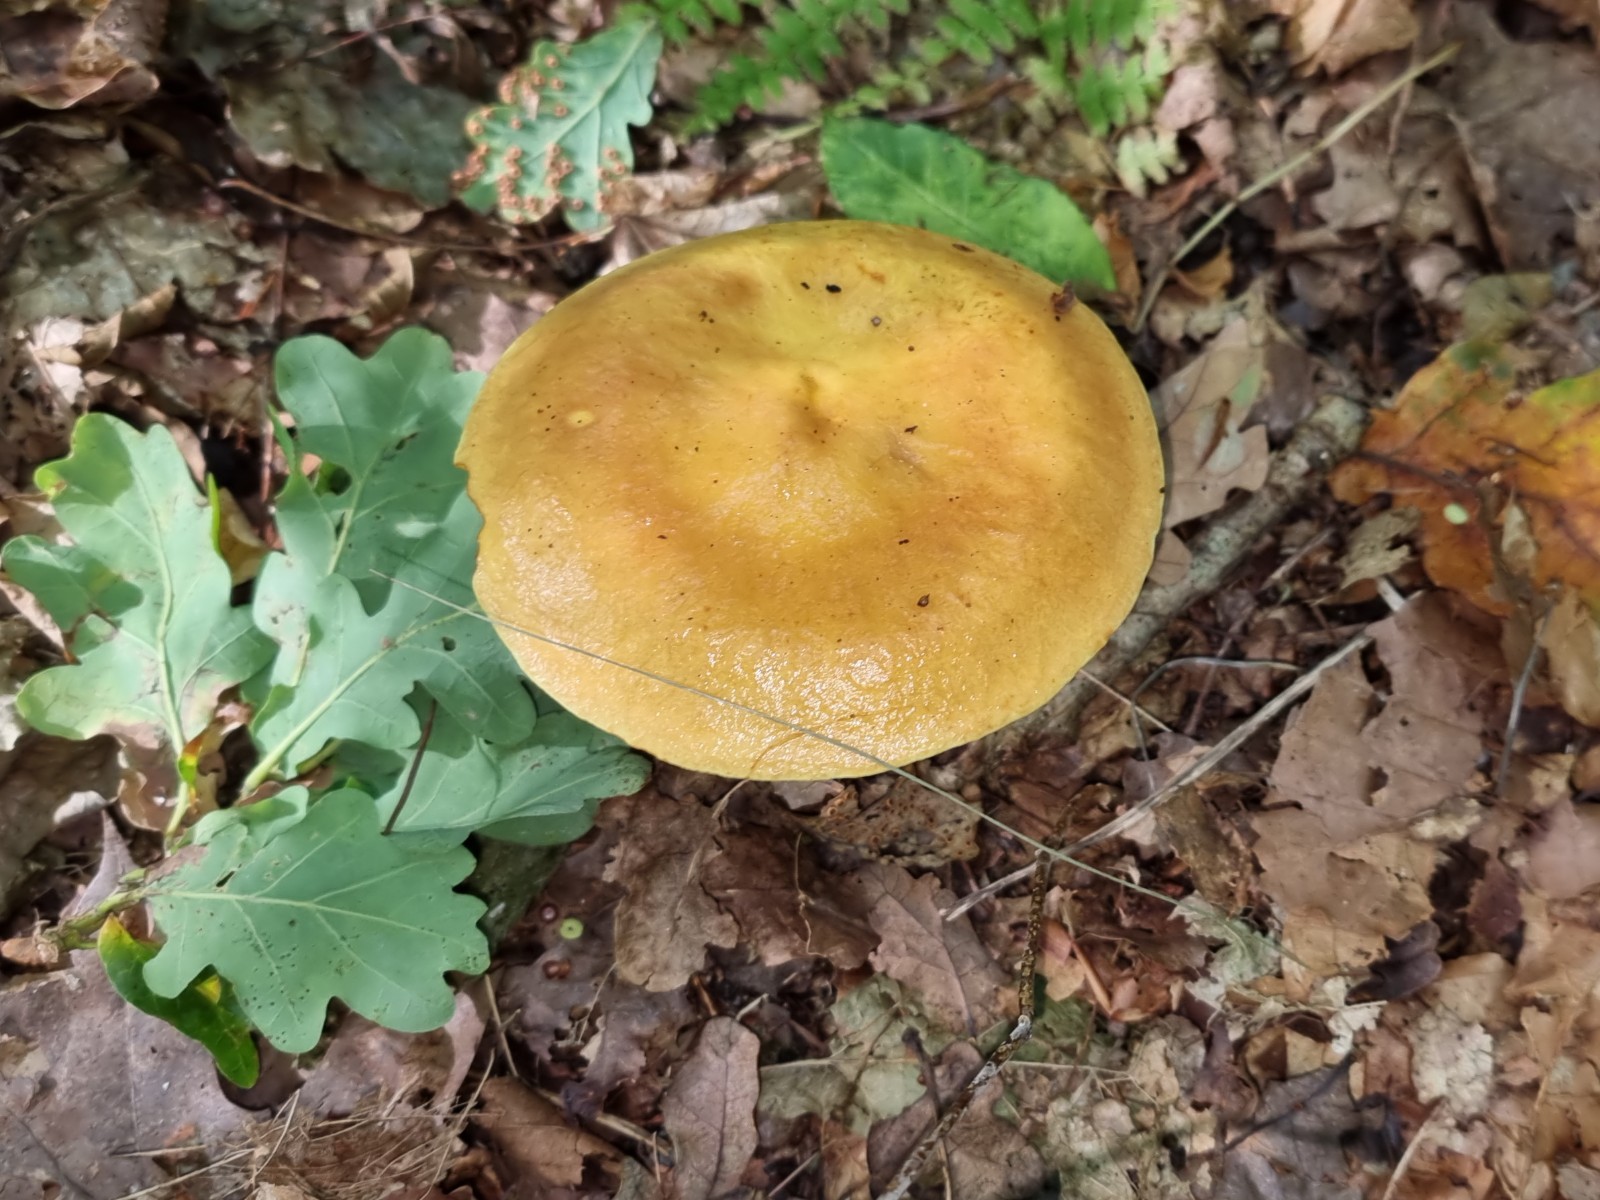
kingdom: Fungi
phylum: Basidiomycota
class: Agaricomycetes
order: Boletales
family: Suillaceae
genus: Suillus
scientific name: Suillus grevillei
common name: lærke-slimrørhat
